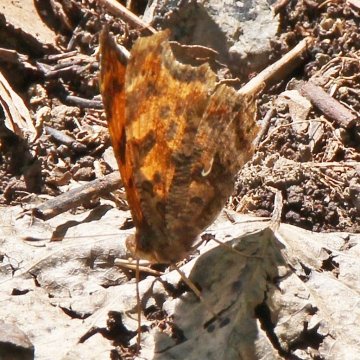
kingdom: Animalia
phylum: Arthropoda
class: Insecta
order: Lepidoptera
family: Nymphalidae
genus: Polygonia
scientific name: Polygonia comma
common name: Eastern Comma
